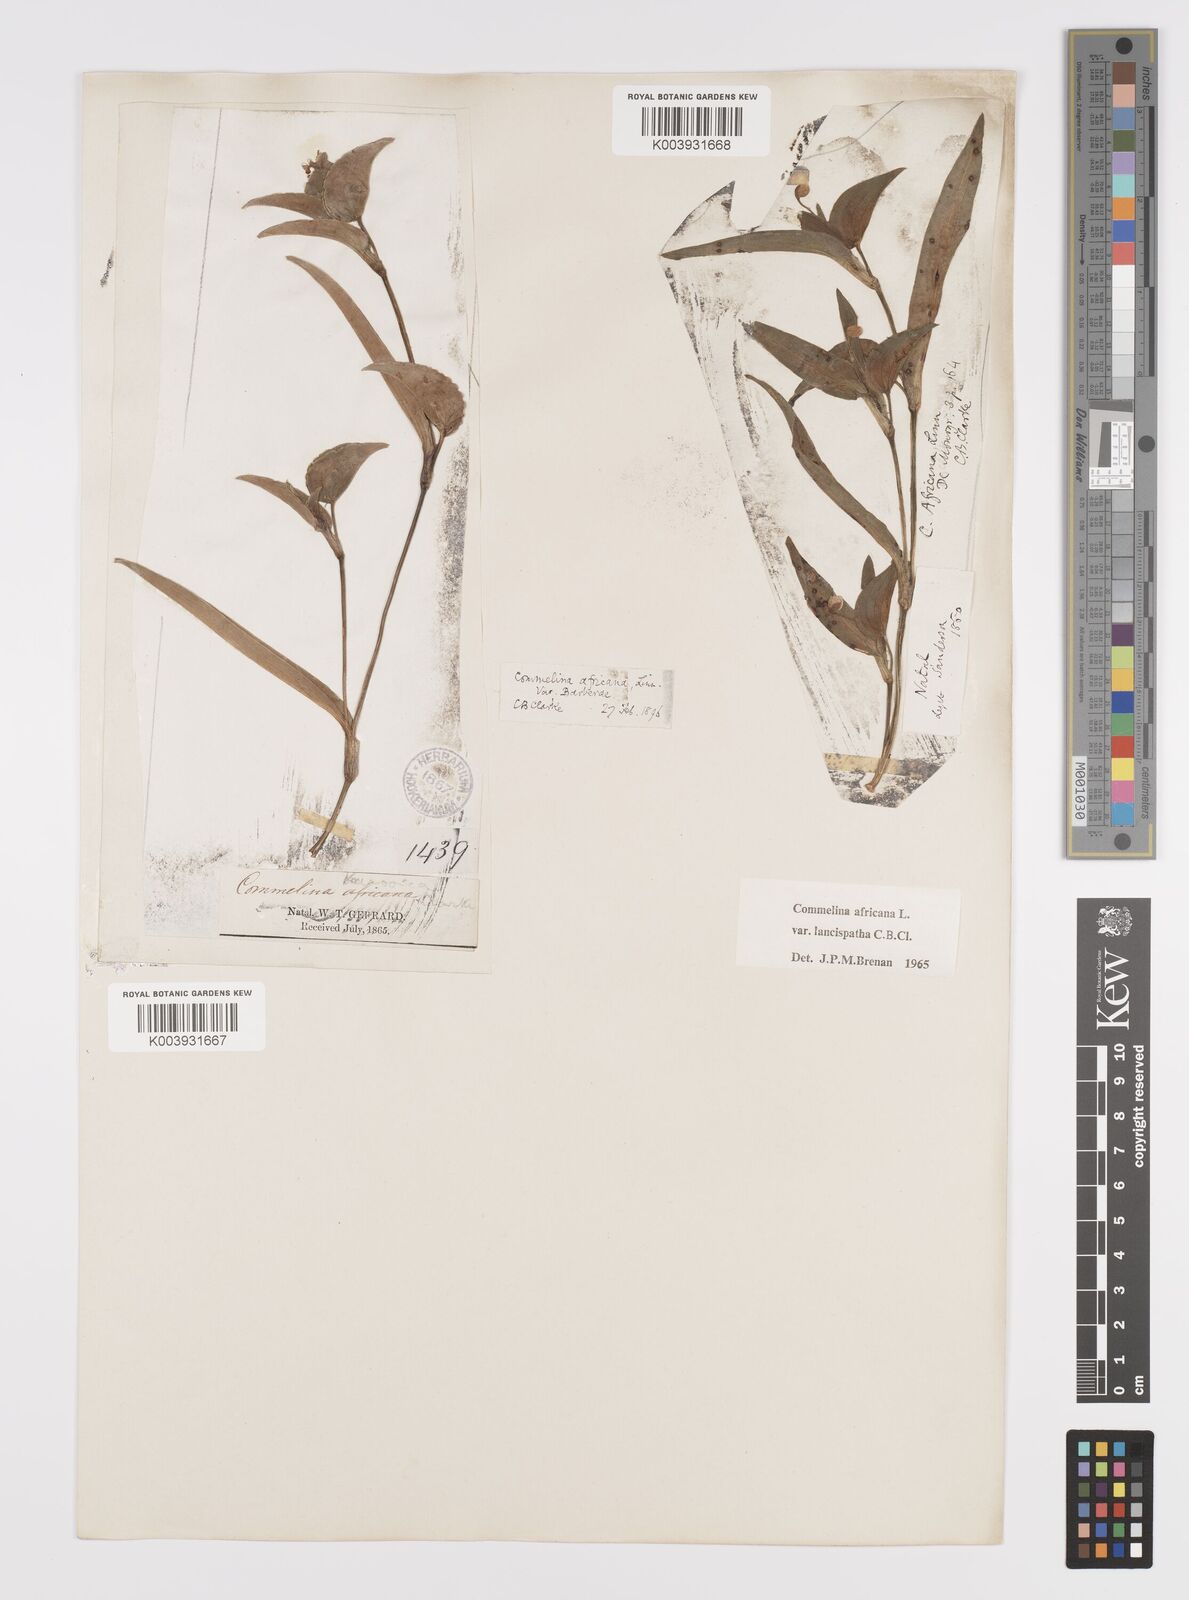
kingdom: Plantae
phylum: Tracheophyta
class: Liliopsida
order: Commelinales
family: Commelinaceae
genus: Commelina
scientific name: Commelina africana
